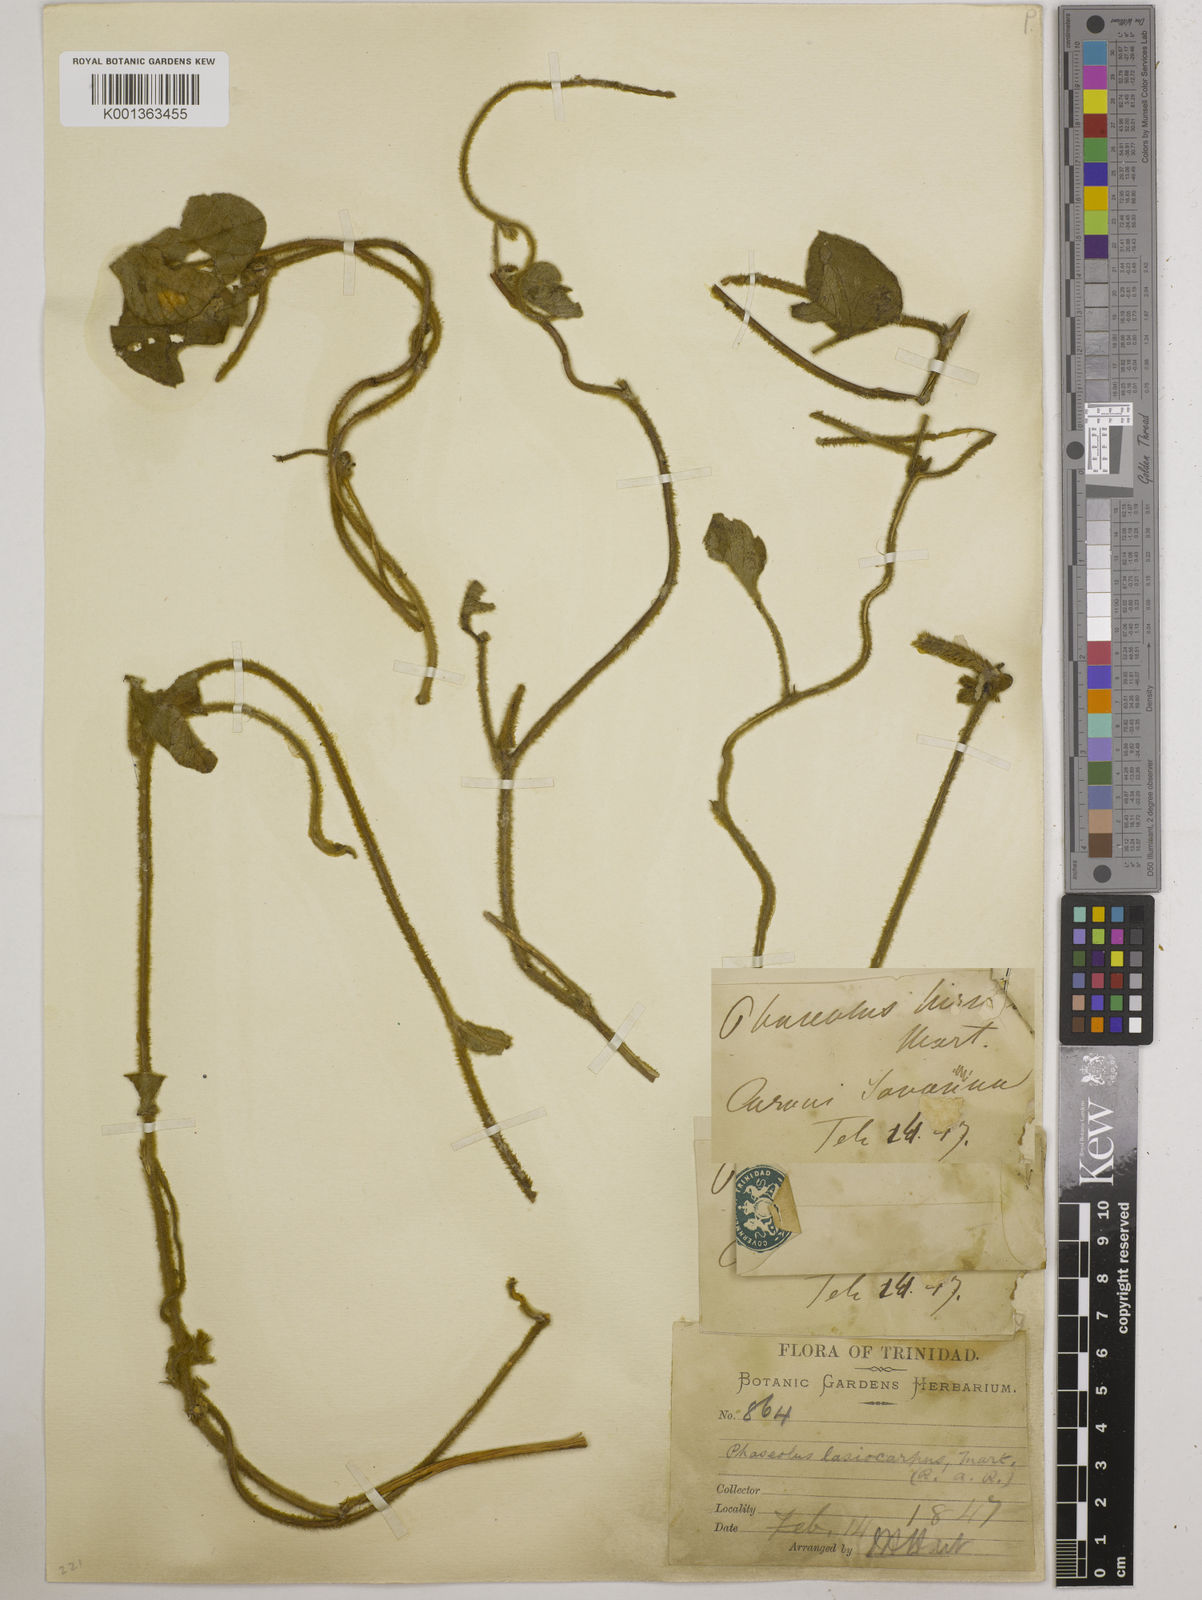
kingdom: Plantae
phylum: Tracheophyta
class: Magnoliopsida
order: Fabales
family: Fabaceae
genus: Vigna
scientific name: Vigna lasiocarpa
